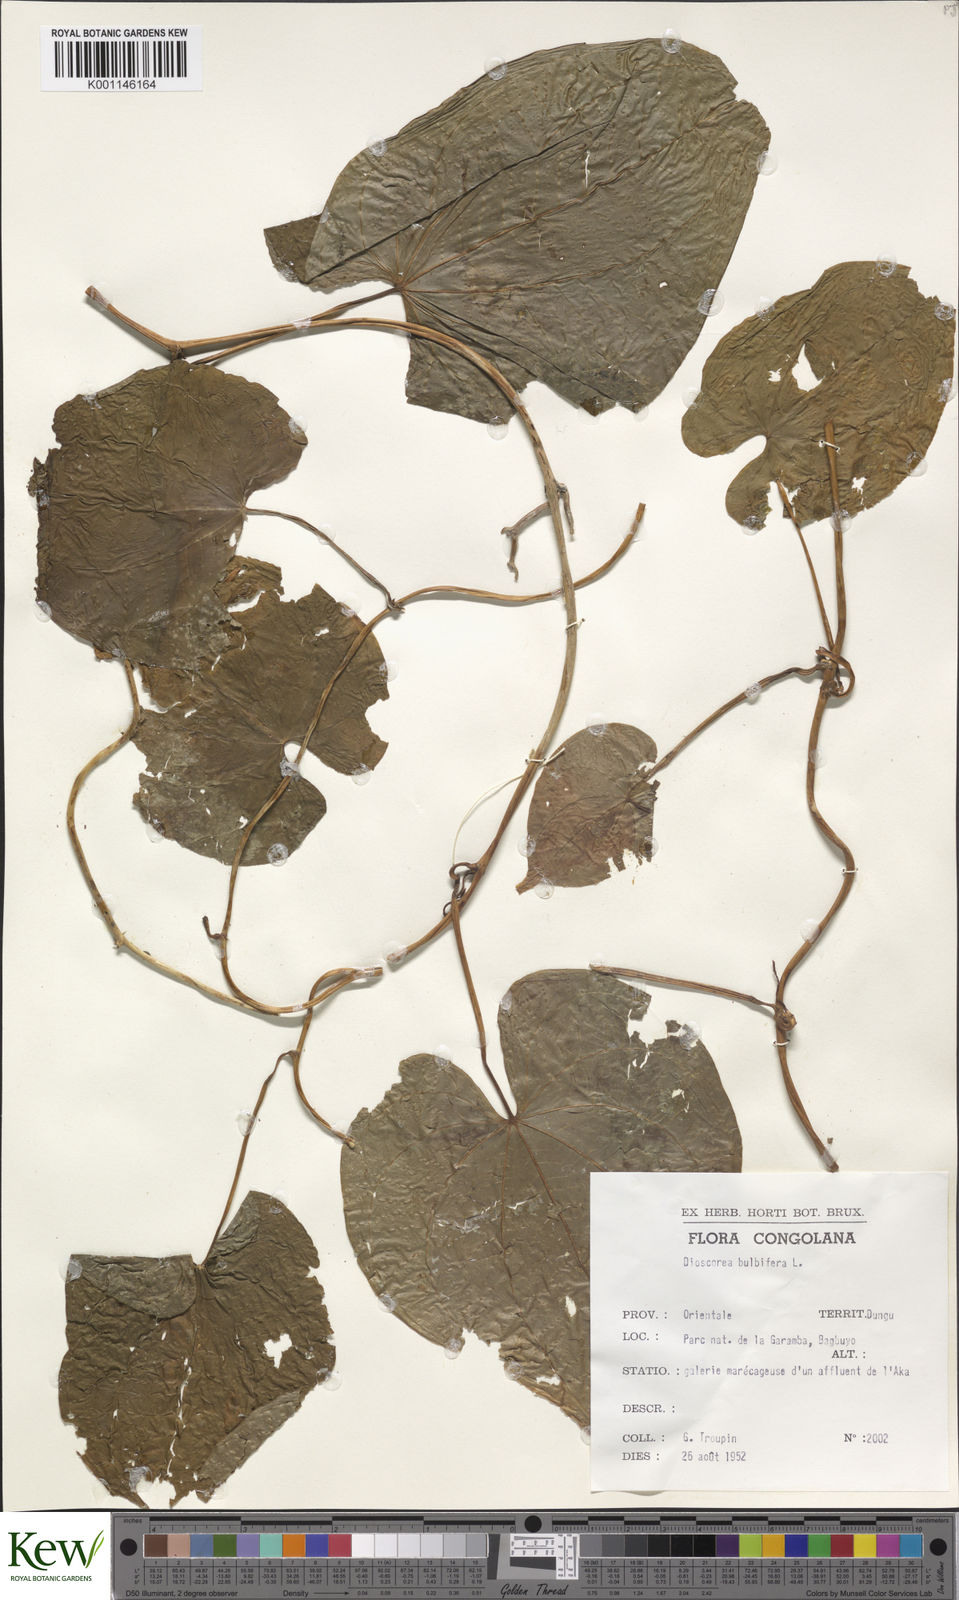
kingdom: Plantae
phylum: Tracheophyta
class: Liliopsida
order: Dioscoreales
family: Dioscoreaceae
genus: Dioscorea
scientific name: Dioscorea bulbifera
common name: Air yam
